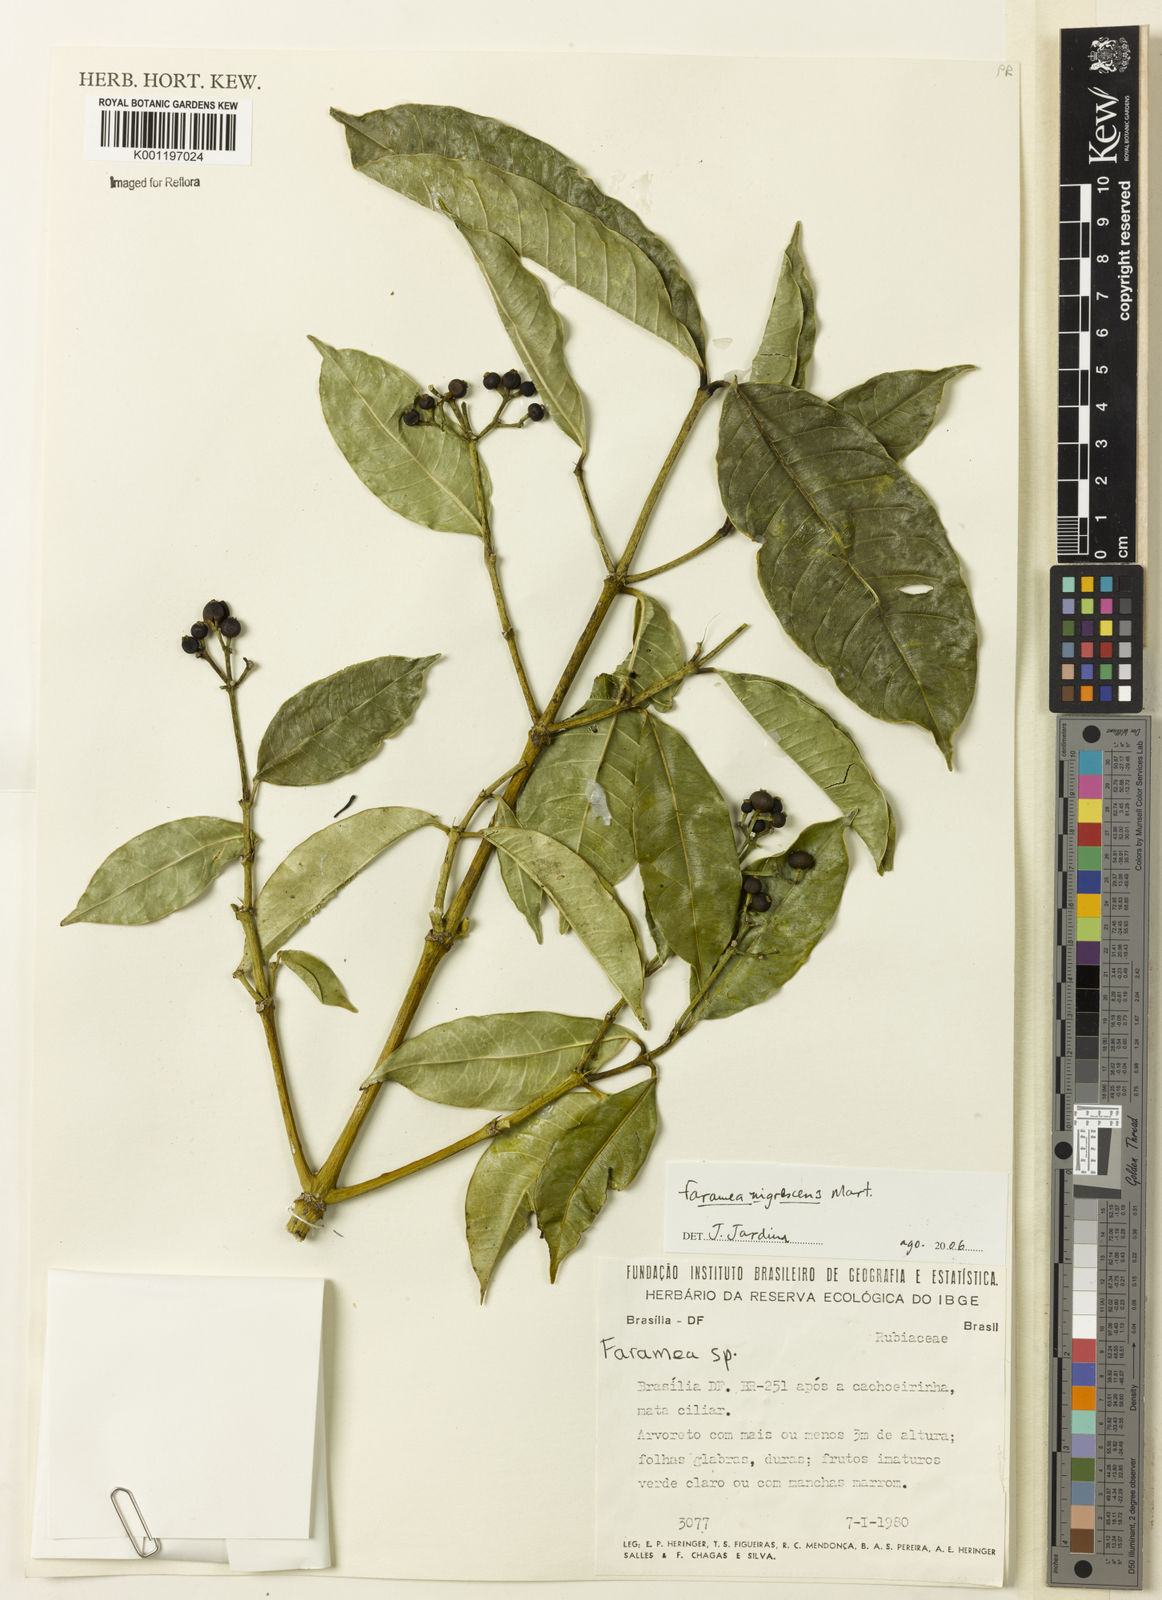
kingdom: Plantae
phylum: Tracheophyta
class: Magnoliopsida
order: Gentianales
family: Rubiaceae
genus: Faramea
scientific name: Faramea nigrescens
